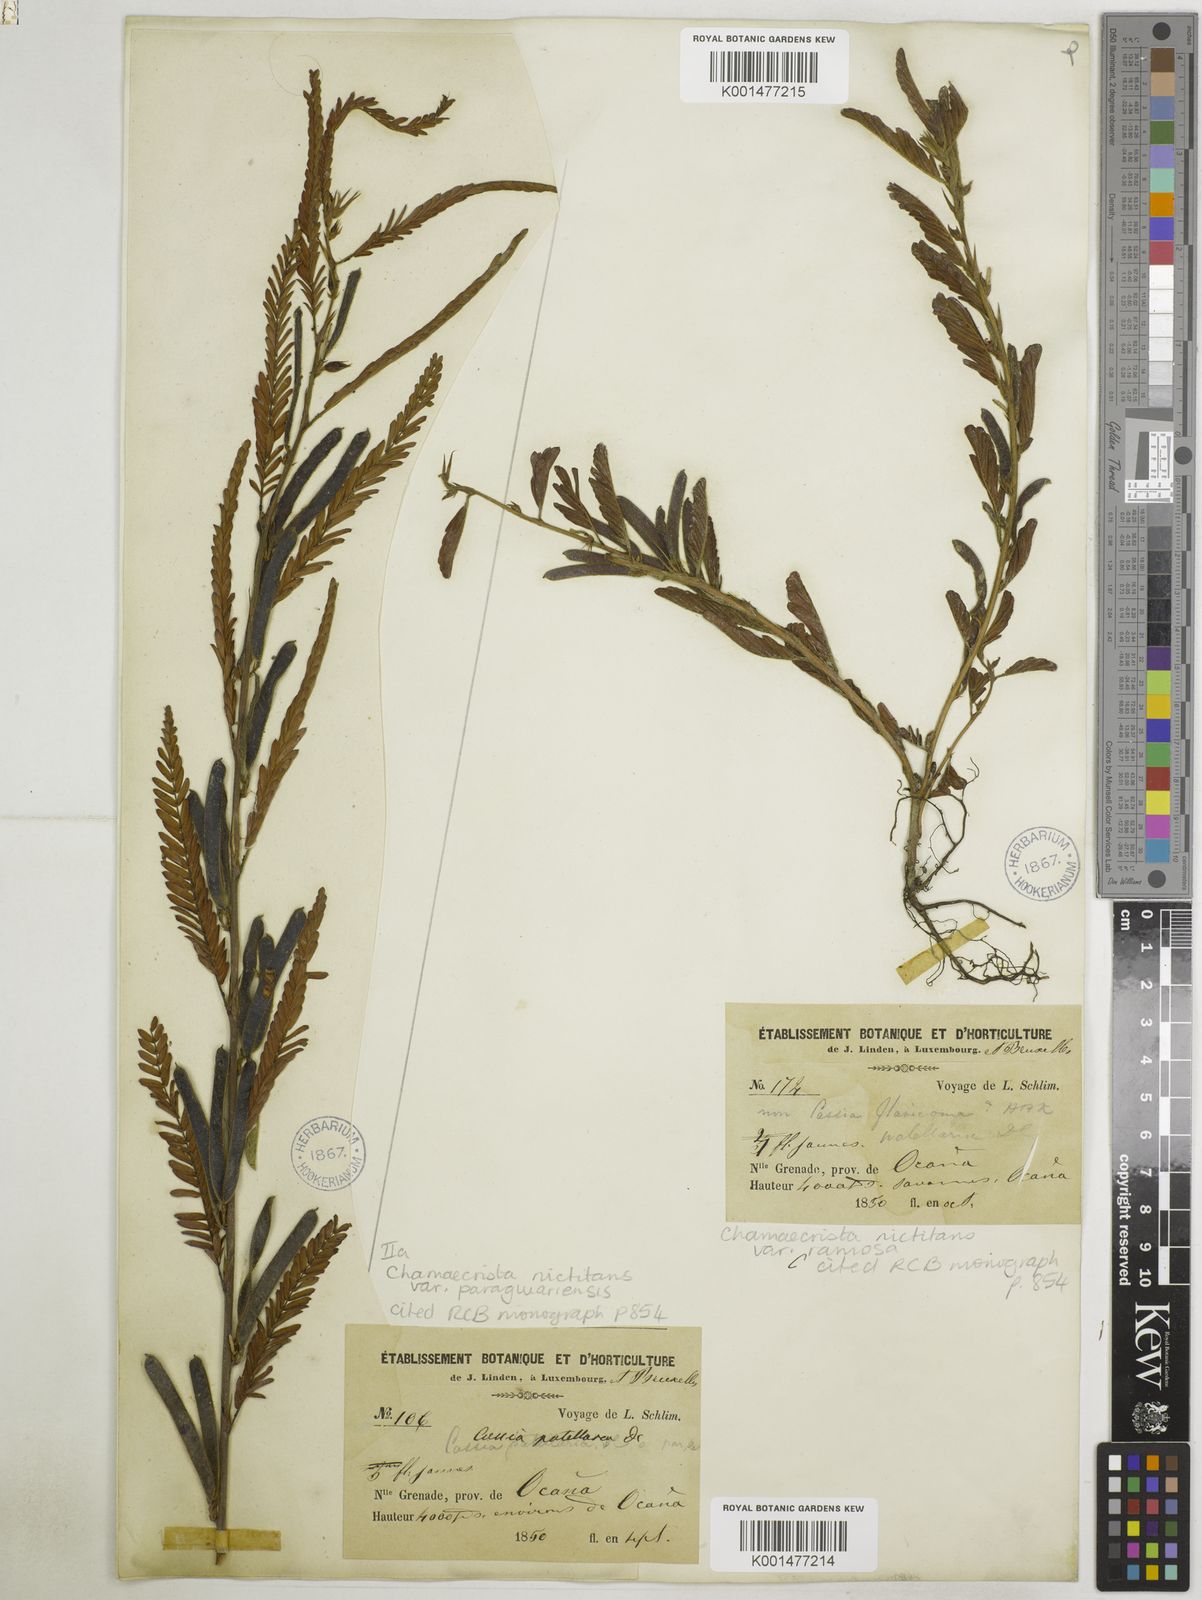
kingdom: Plantae
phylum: Tracheophyta
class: Magnoliopsida
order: Fabales
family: Fabaceae
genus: Chamaecrista
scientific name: Chamaecrista nictitans
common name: Sensitive cassia
